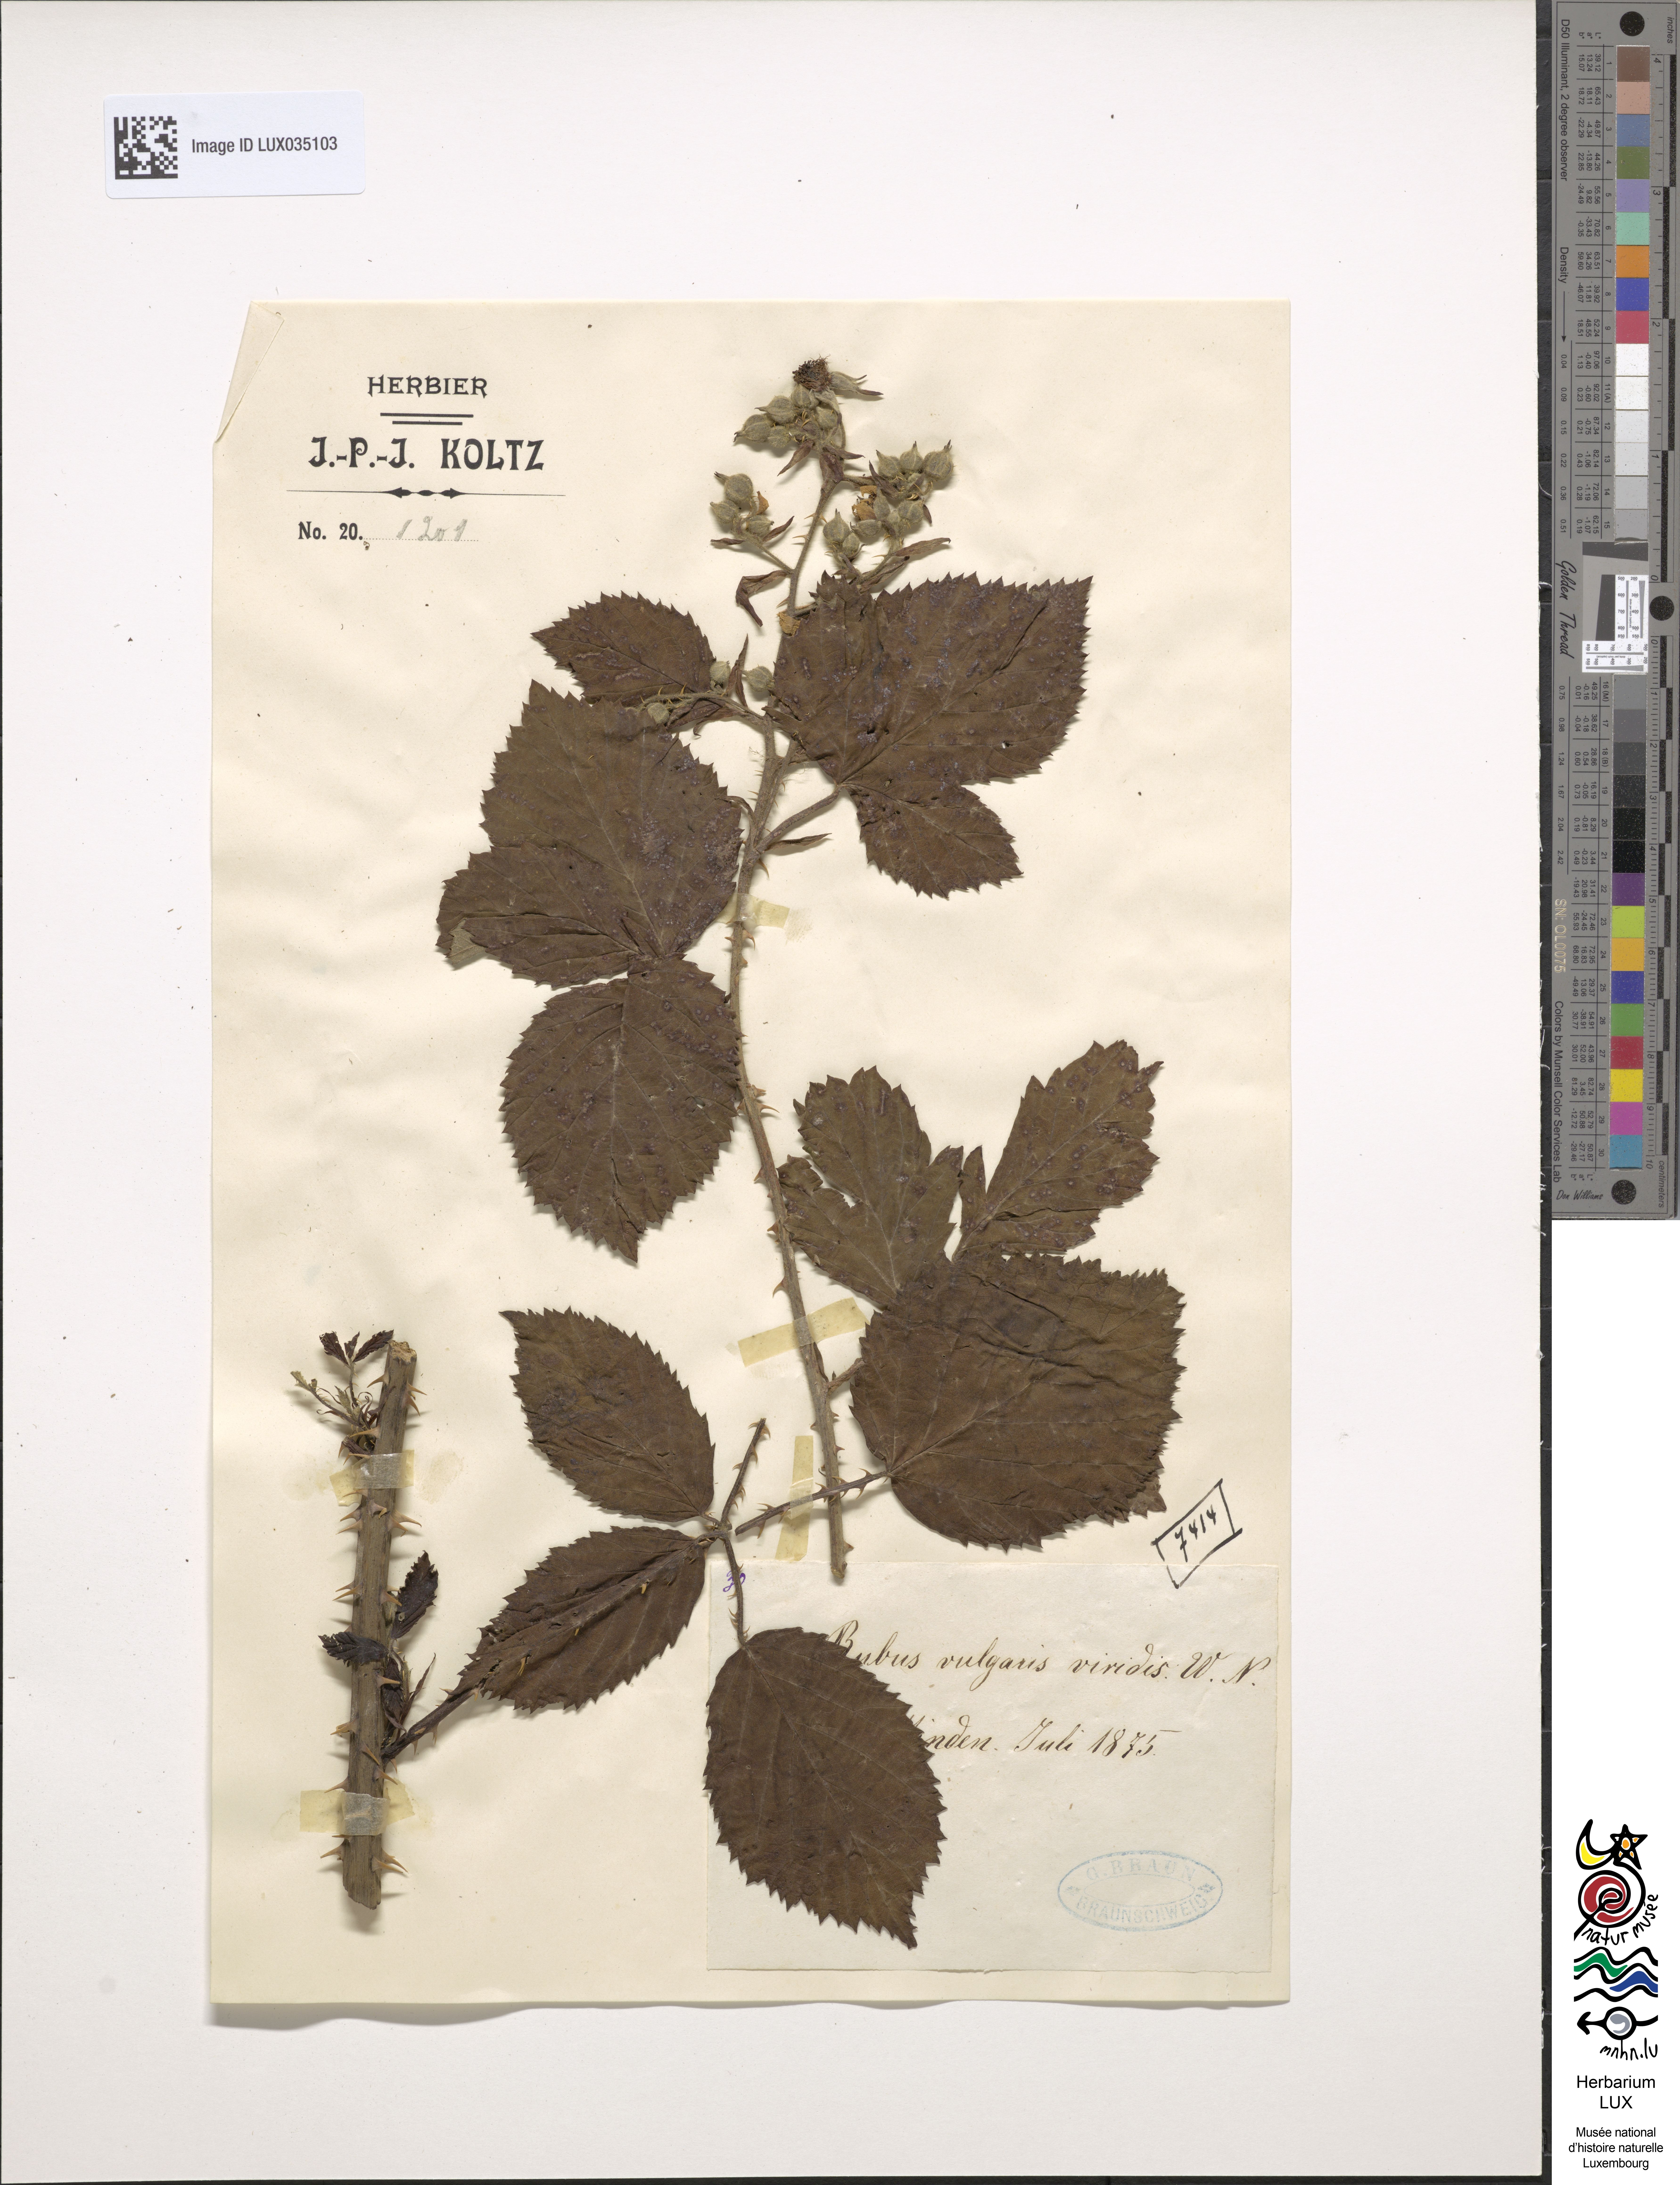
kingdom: Plantae
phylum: Tracheophyta
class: Magnoliopsida
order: Rosales
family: Rosaceae
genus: Rubus
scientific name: Rubus aschoffii
